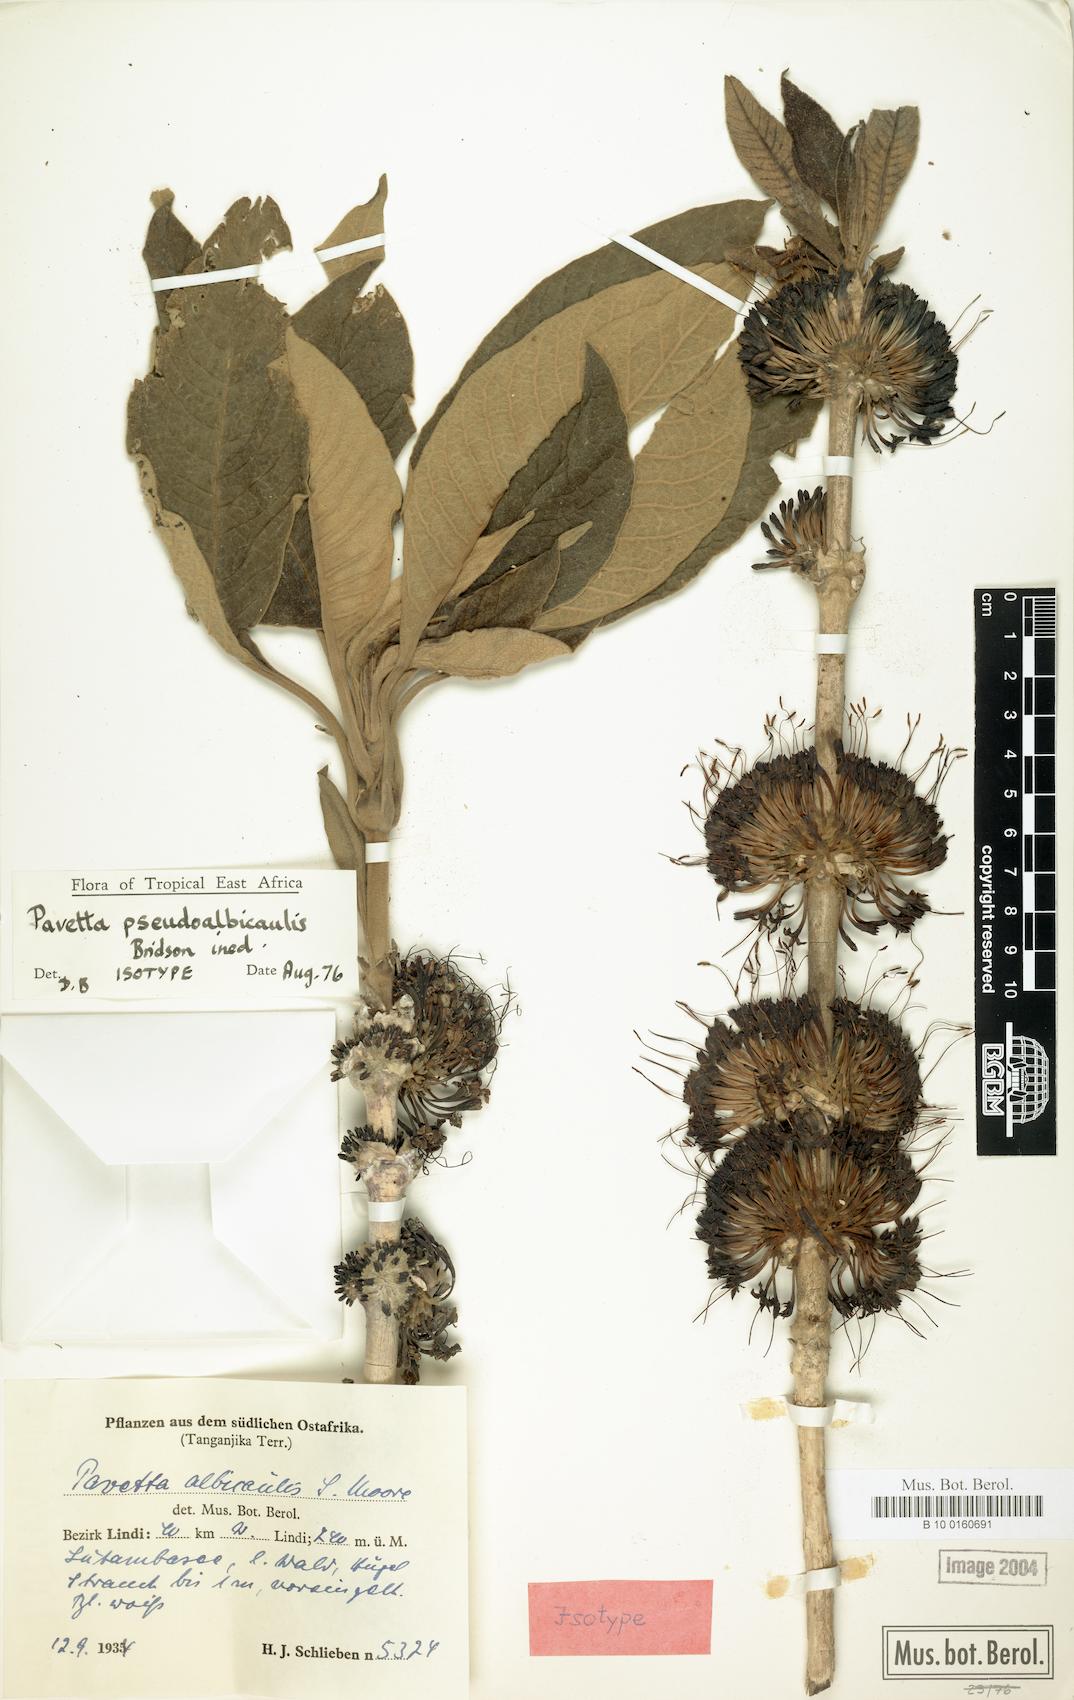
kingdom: Plantae
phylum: Tracheophyta
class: Magnoliopsida
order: Gentianales
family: Rubiaceae
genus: Pavetta
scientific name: Pavetta pseudoalbicaulis
